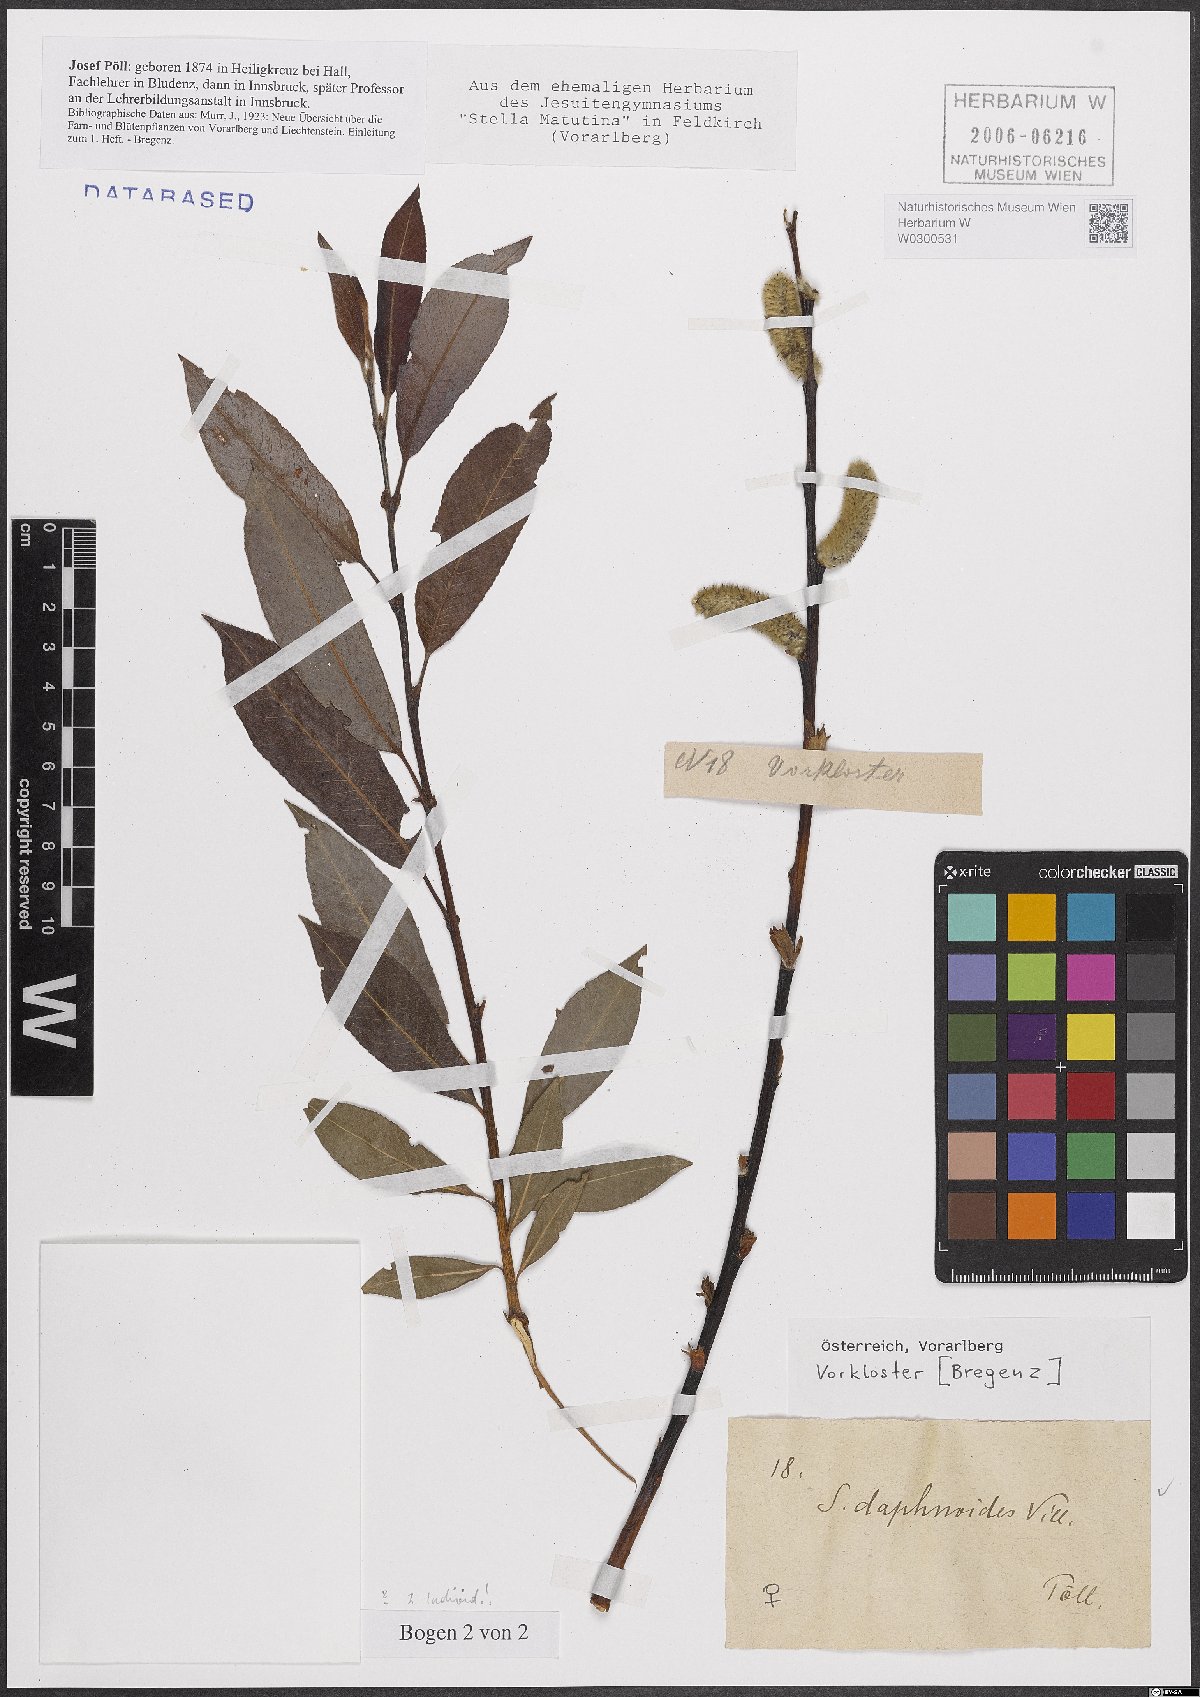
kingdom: Plantae
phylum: Tracheophyta
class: Magnoliopsida
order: Malpighiales
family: Salicaceae
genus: Salix
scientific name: Salix daphnoides
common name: European violet-willow
